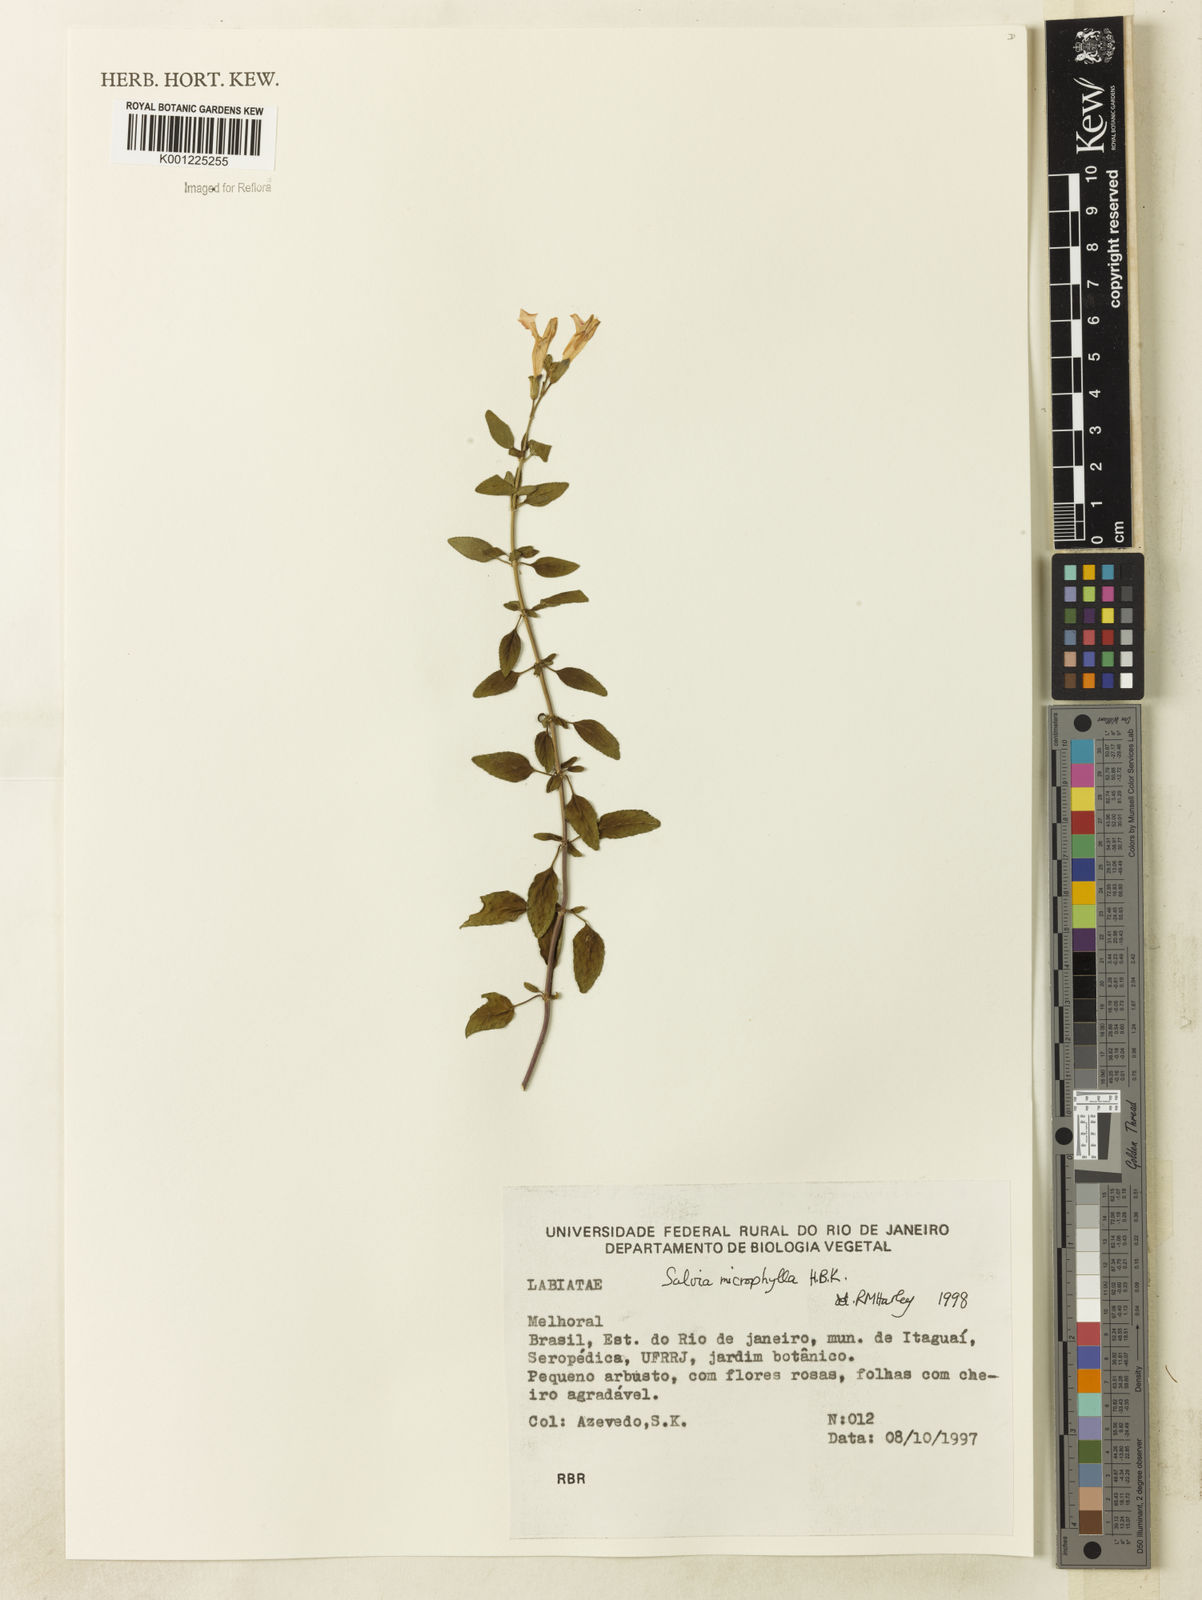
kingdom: Plantae
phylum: Tracheophyta
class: Magnoliopsida
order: Lamiales
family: Lamiaceae
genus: Salvia
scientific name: Salvia microphylla
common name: Baby sage
